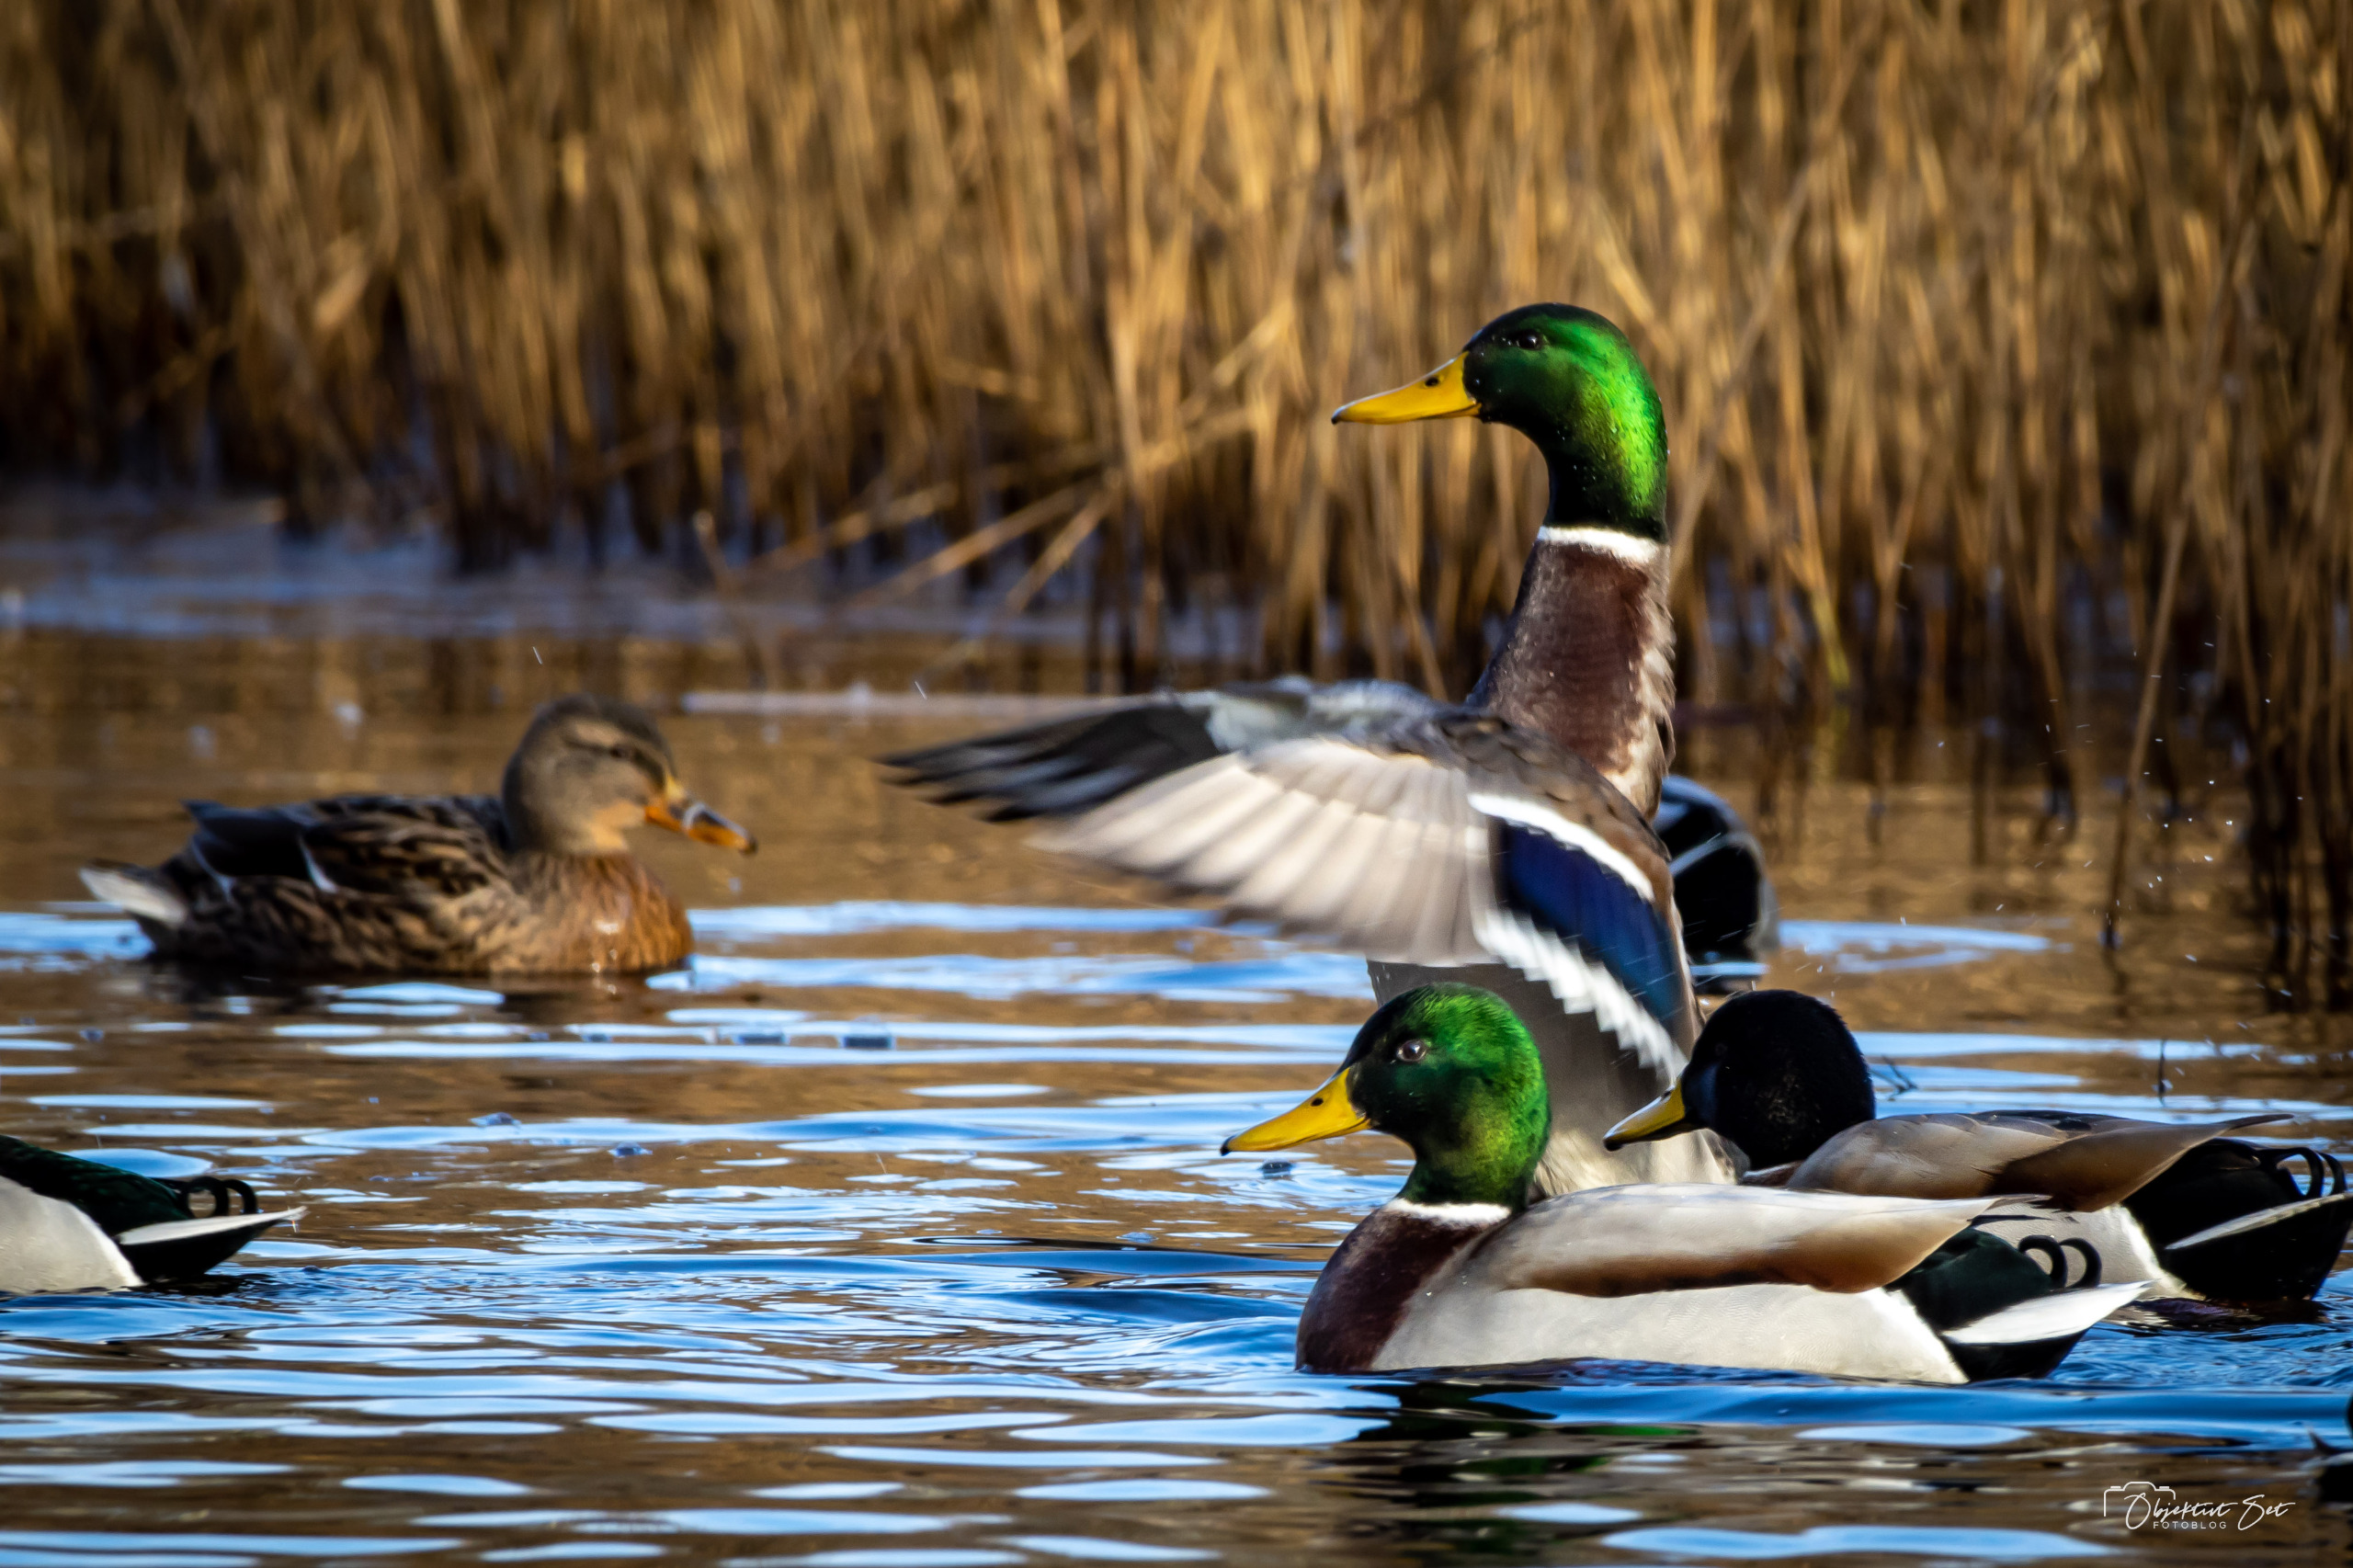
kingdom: Animalia
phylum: Chordata
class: Aves
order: Anseriformes
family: Anatidae
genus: Anas
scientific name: Anas platyrhynchos
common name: Gråand
